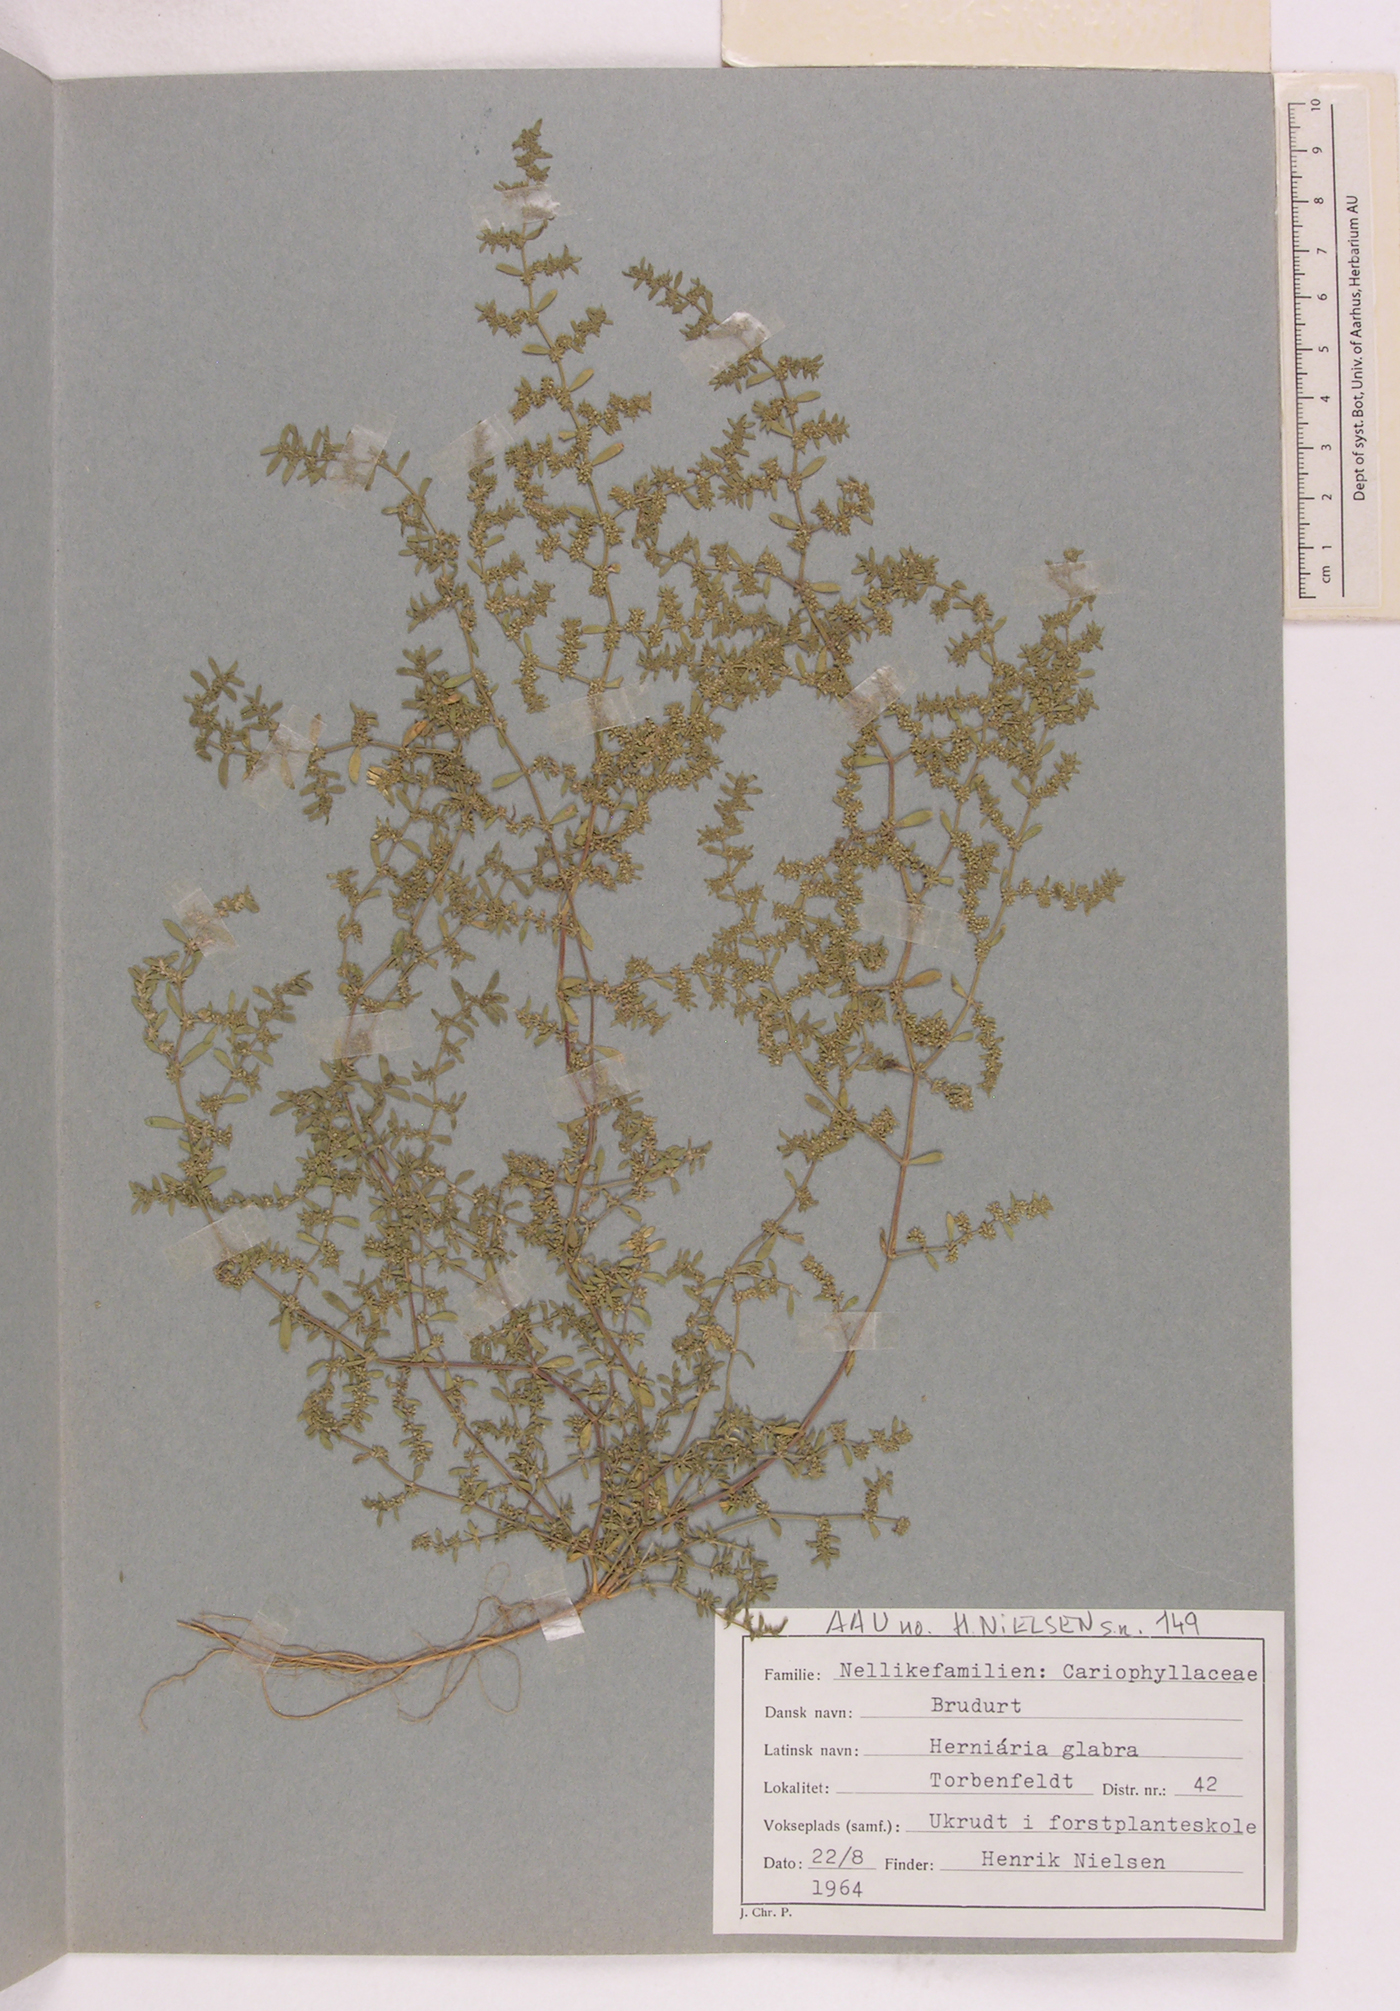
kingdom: Plantae
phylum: Tracheophyta
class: Magnoliopsida
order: Caryophyllales
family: Caryophyllaceae
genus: Herniaria
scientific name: Herniaria glabra
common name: Smooth rupturewort
